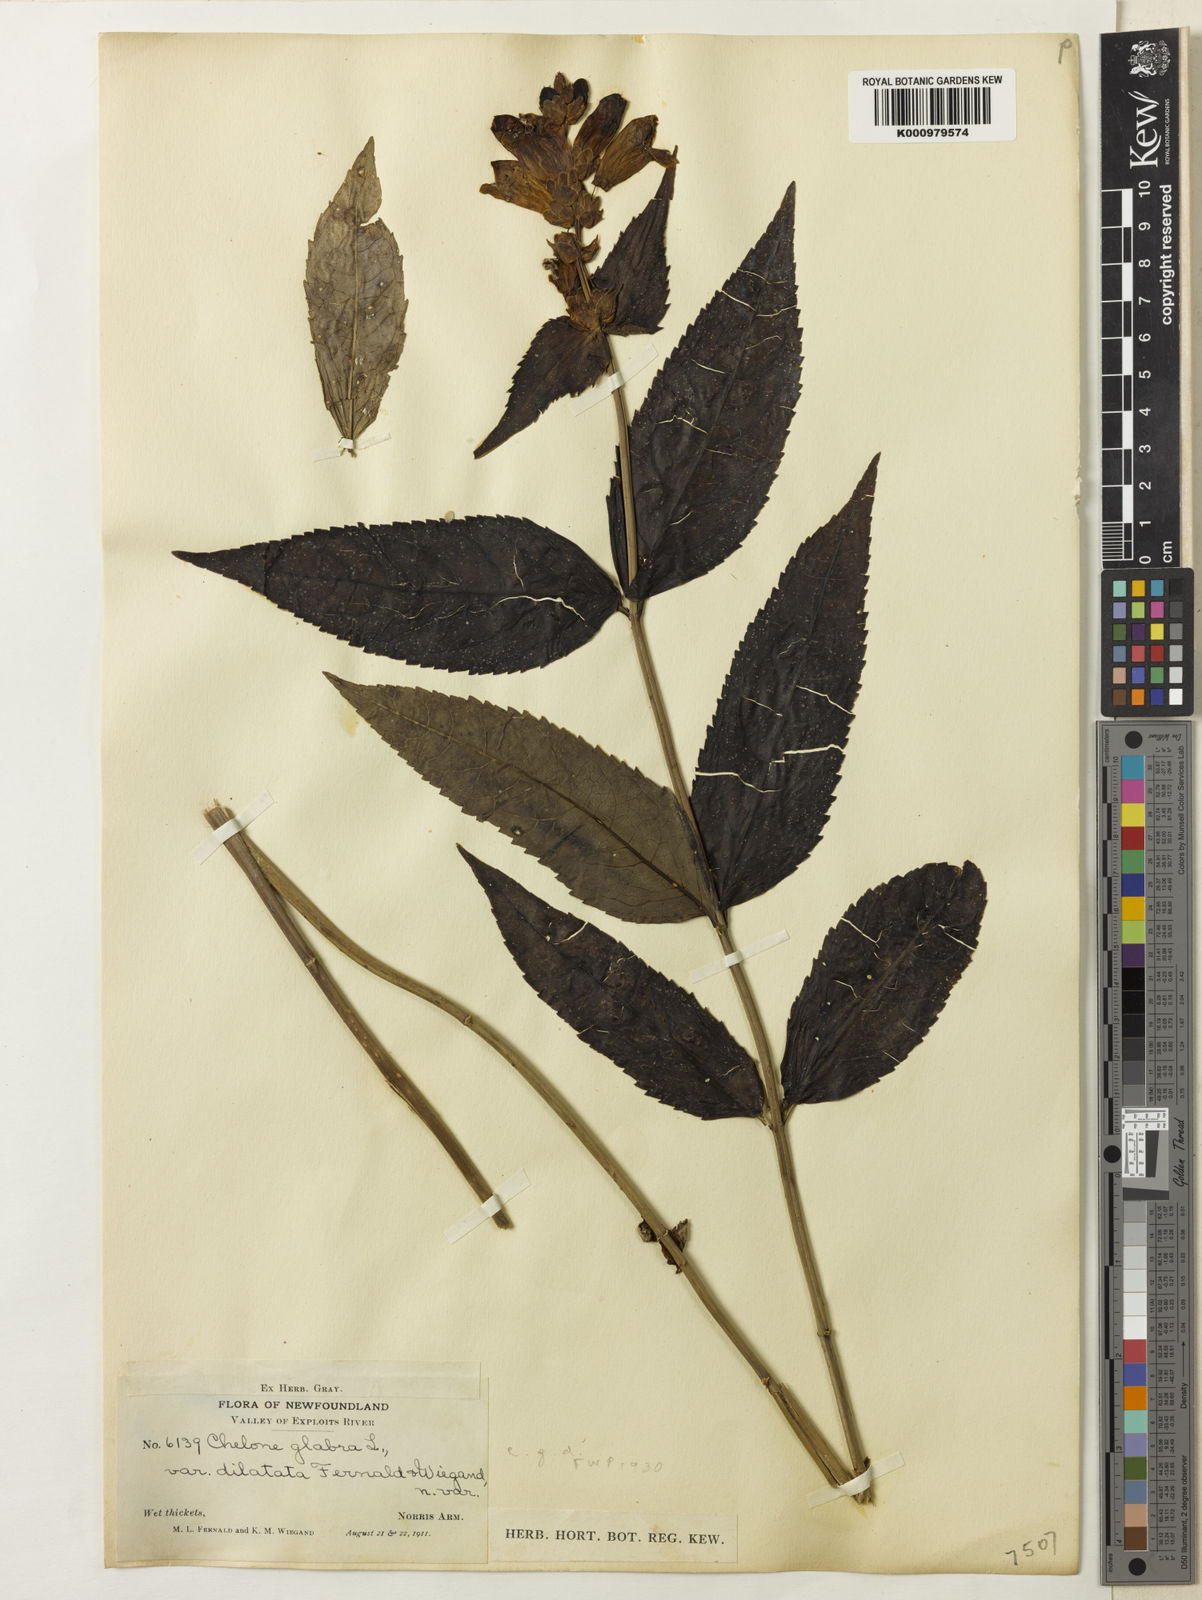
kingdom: Plantae
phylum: Tracheophyta
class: Magnoliopsida
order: Lamiales
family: Plantaginaceae
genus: Chelone
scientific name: Chelone glabra
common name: Snakehead
